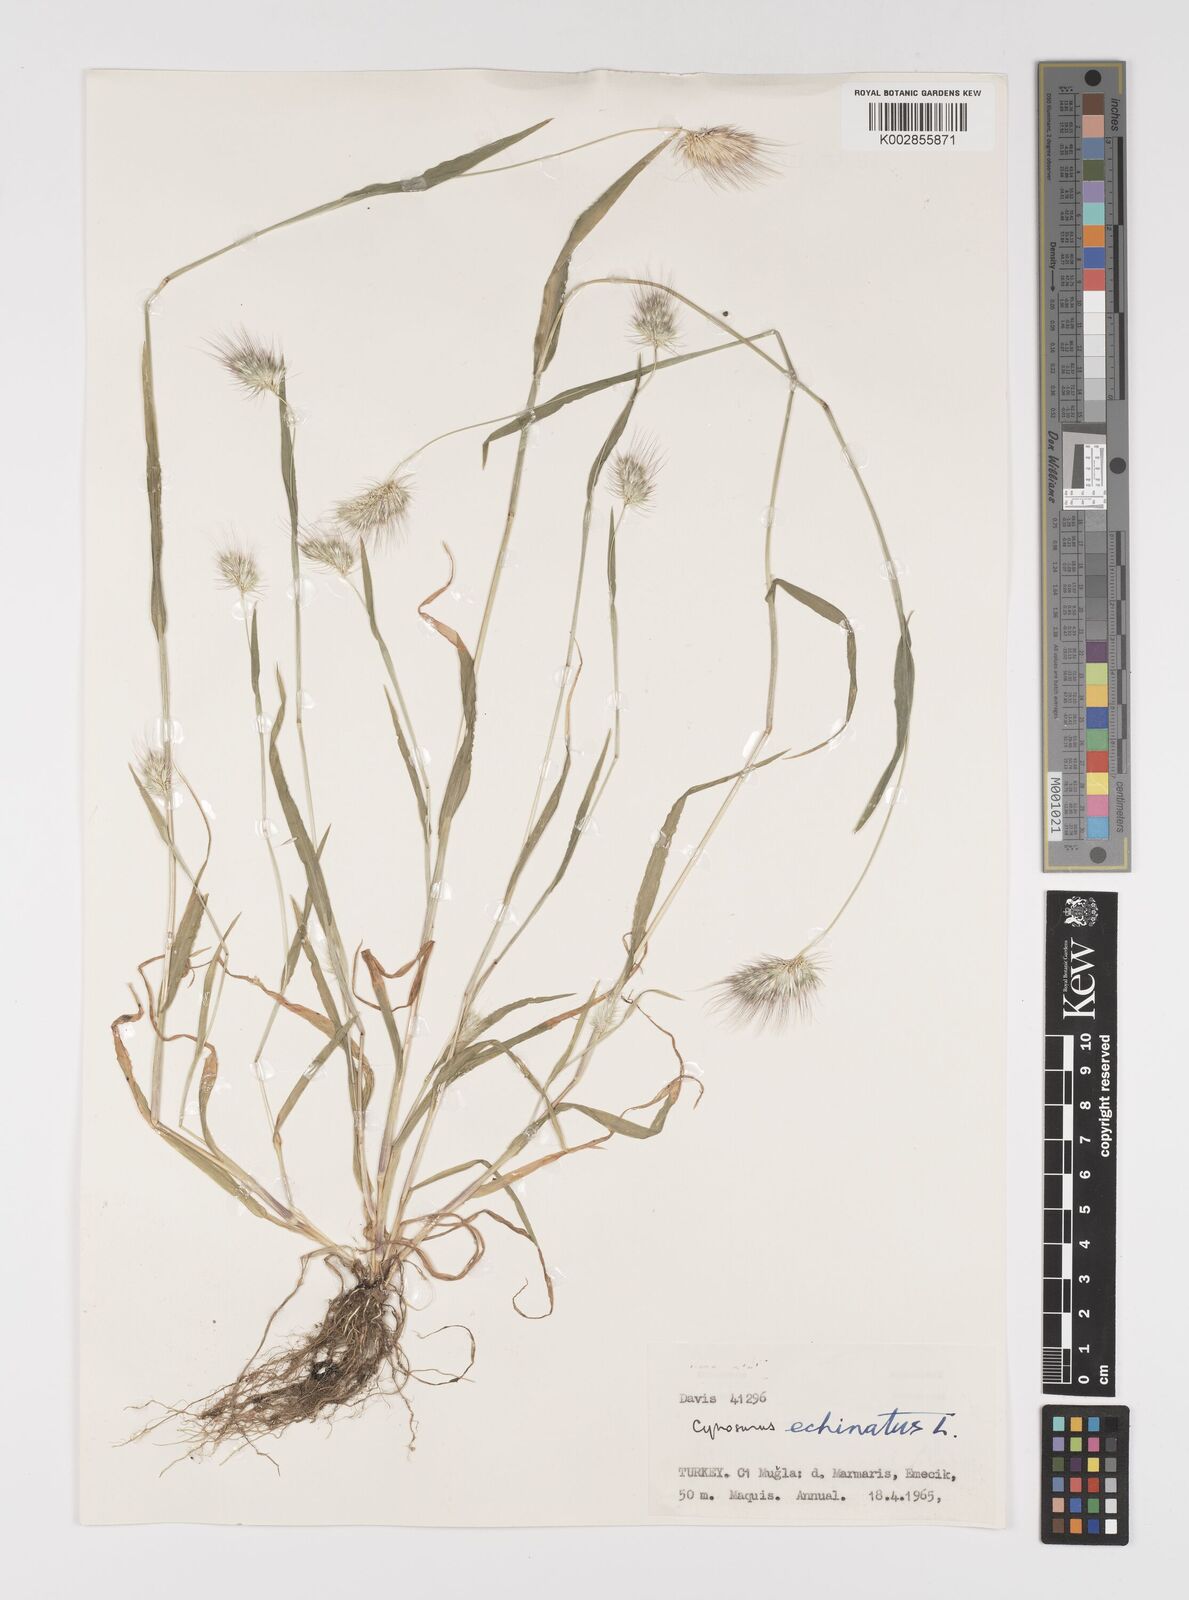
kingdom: Plantae
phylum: Tracheophyta
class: Liliopsida
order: Poales
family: Poaceae
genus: Cynosurus
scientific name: Cynosurus echinatus
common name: Rough dog's-tail
